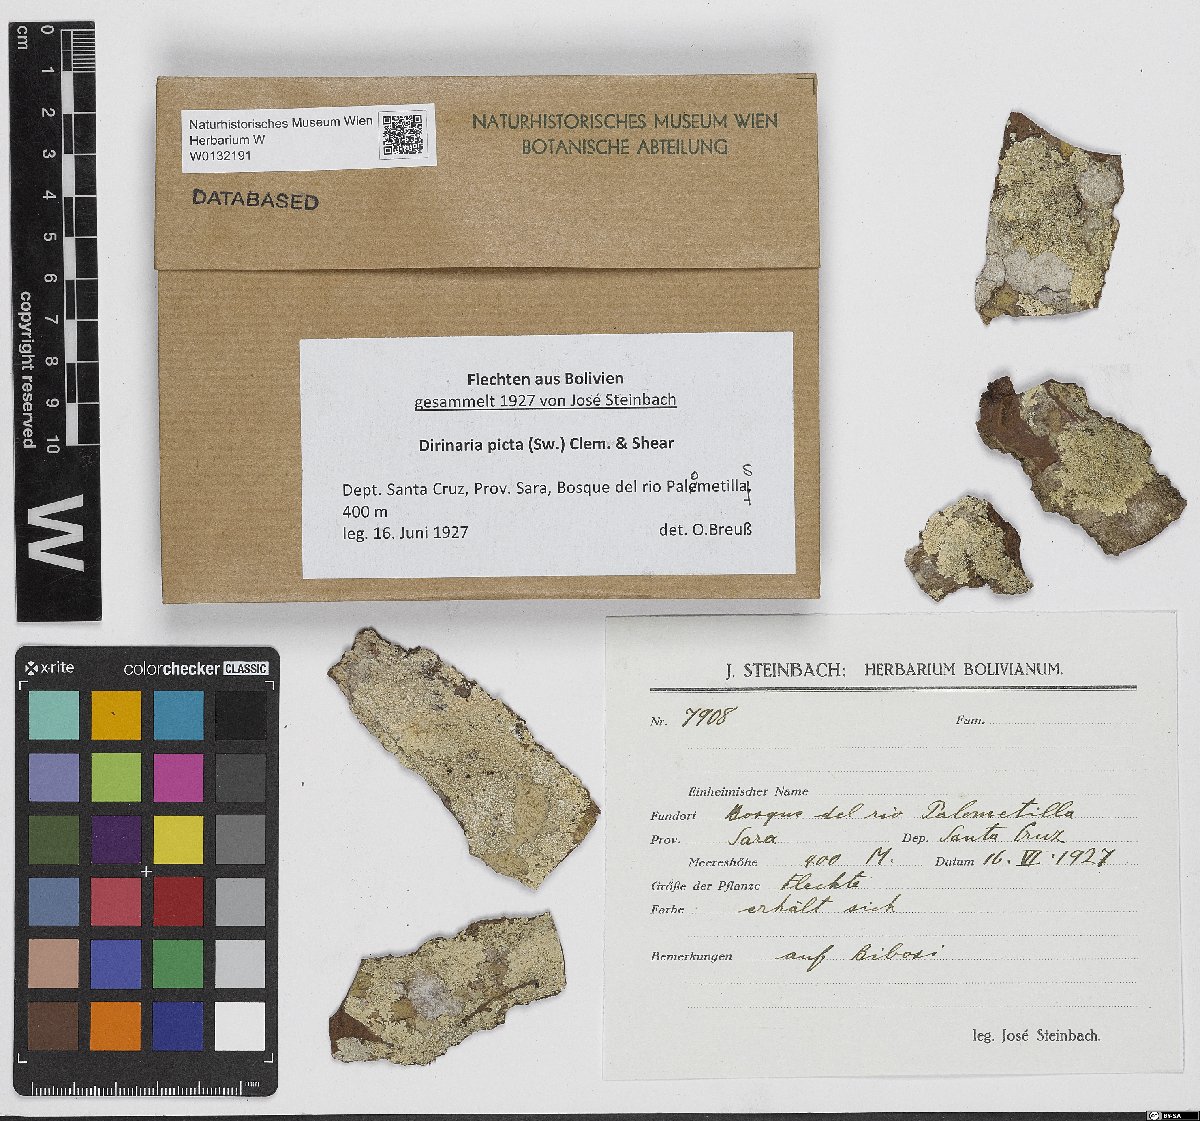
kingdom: Fungi
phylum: Ascomycota
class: Lecanoromycetes
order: Caliciales
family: Caliciaceae
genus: Dirinaria
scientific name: Dirinaria picta
